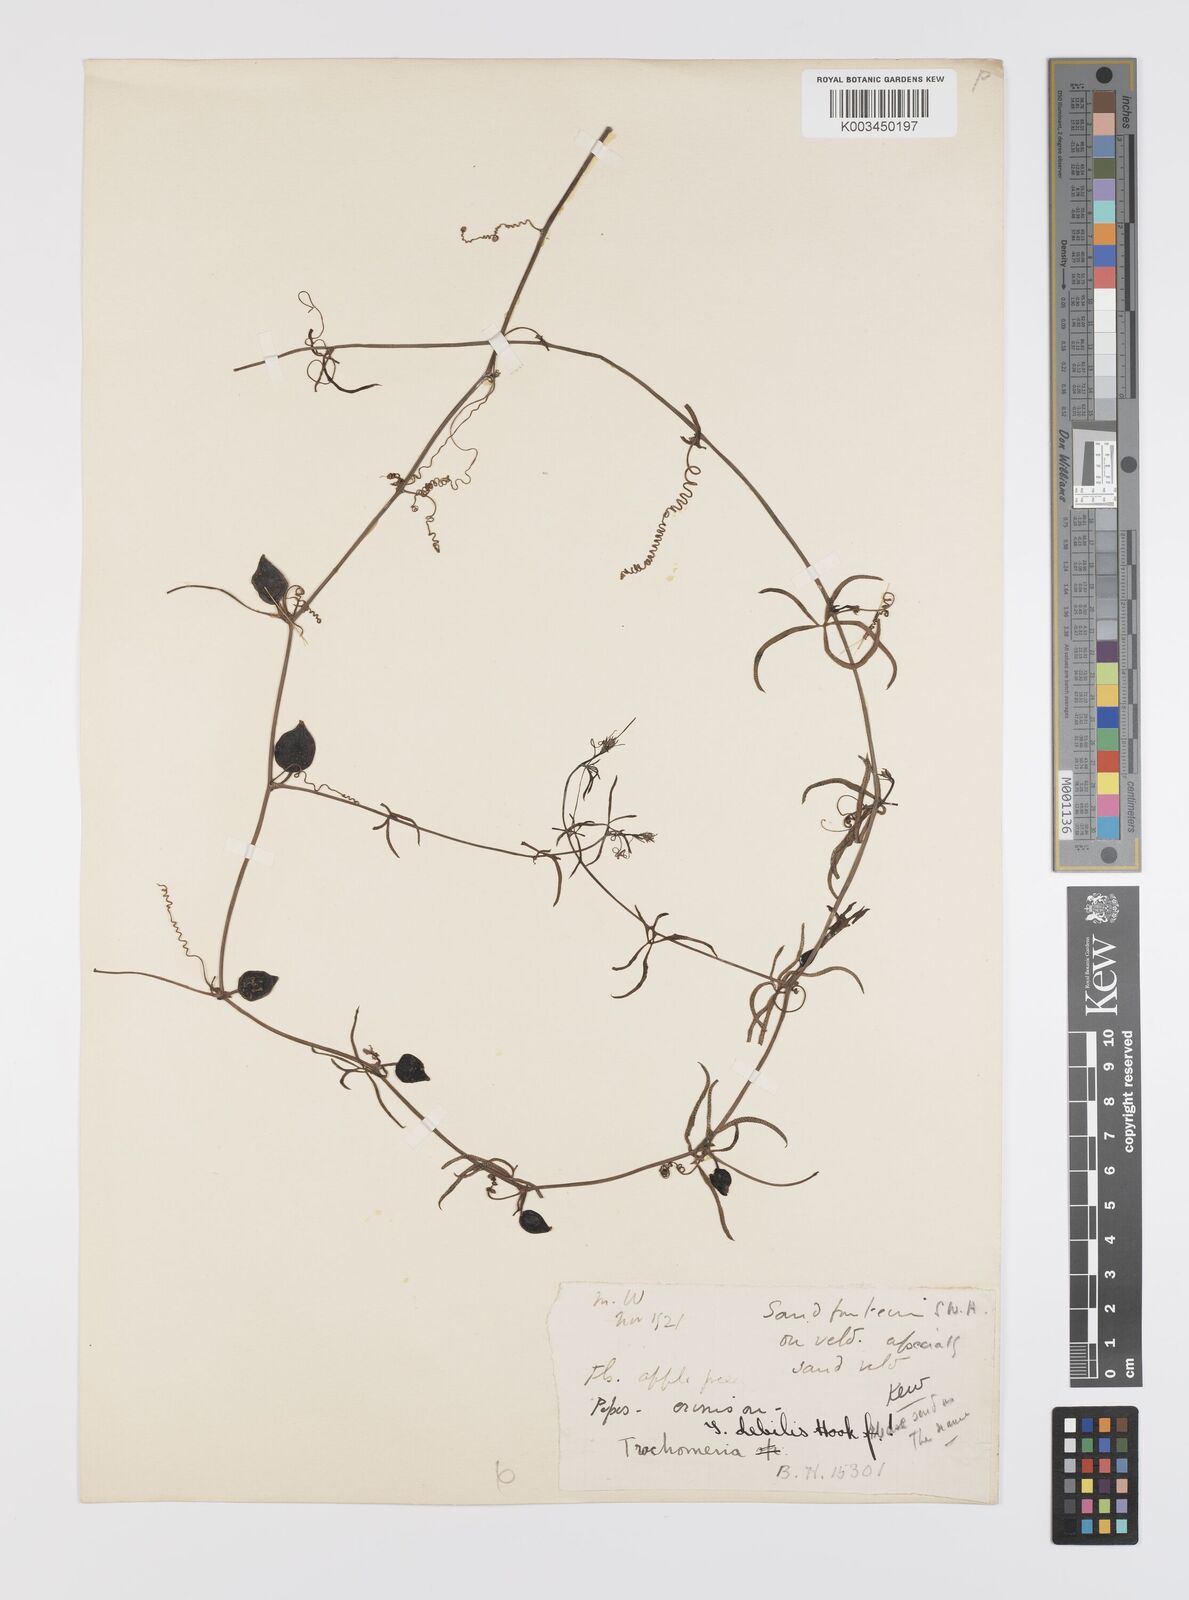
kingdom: Plantae
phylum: Tracheophyta
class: Magnoliopsida
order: Cucurbitales
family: Cucurbitaceae
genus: Trochomeria
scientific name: Trochomeria debilis
